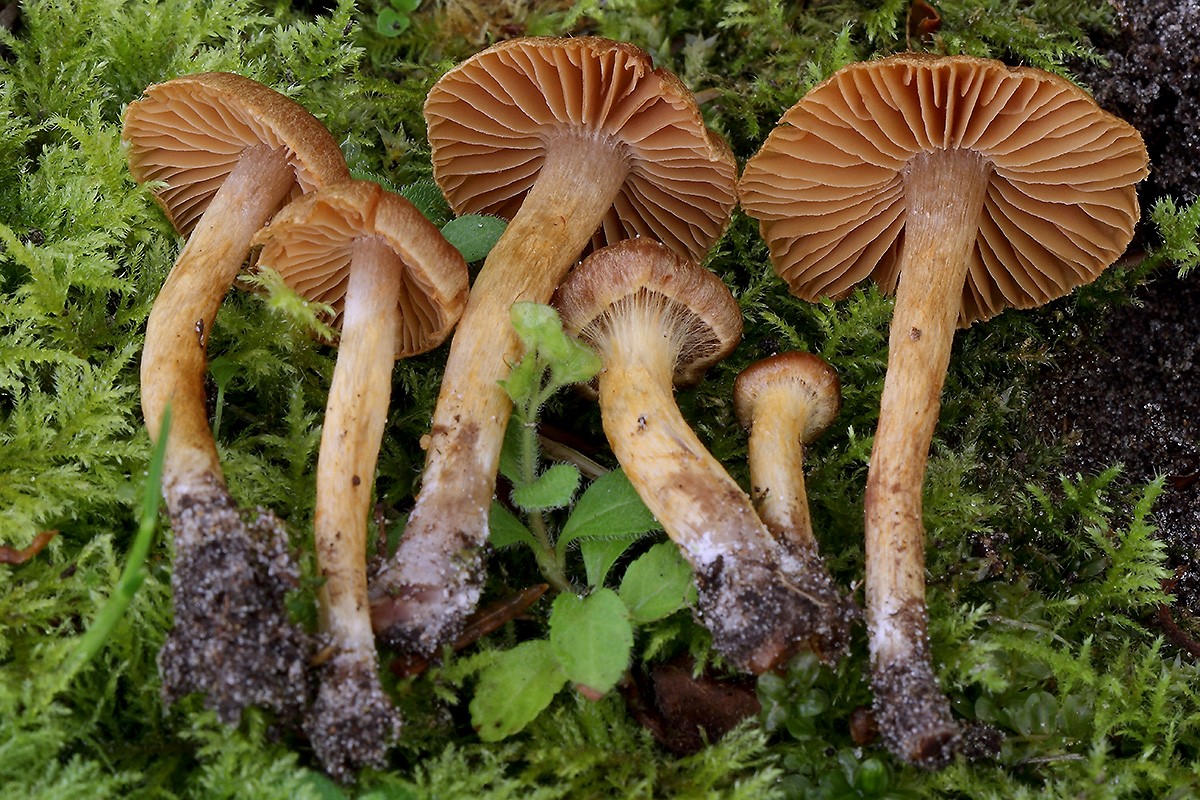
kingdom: Fungi
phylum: Basidiomycota
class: Agaricomycetes
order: Agaricales
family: Cortinariaceae
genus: Cortinarius
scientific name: Cortinarius saniosus
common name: gultrævlet slørhat
